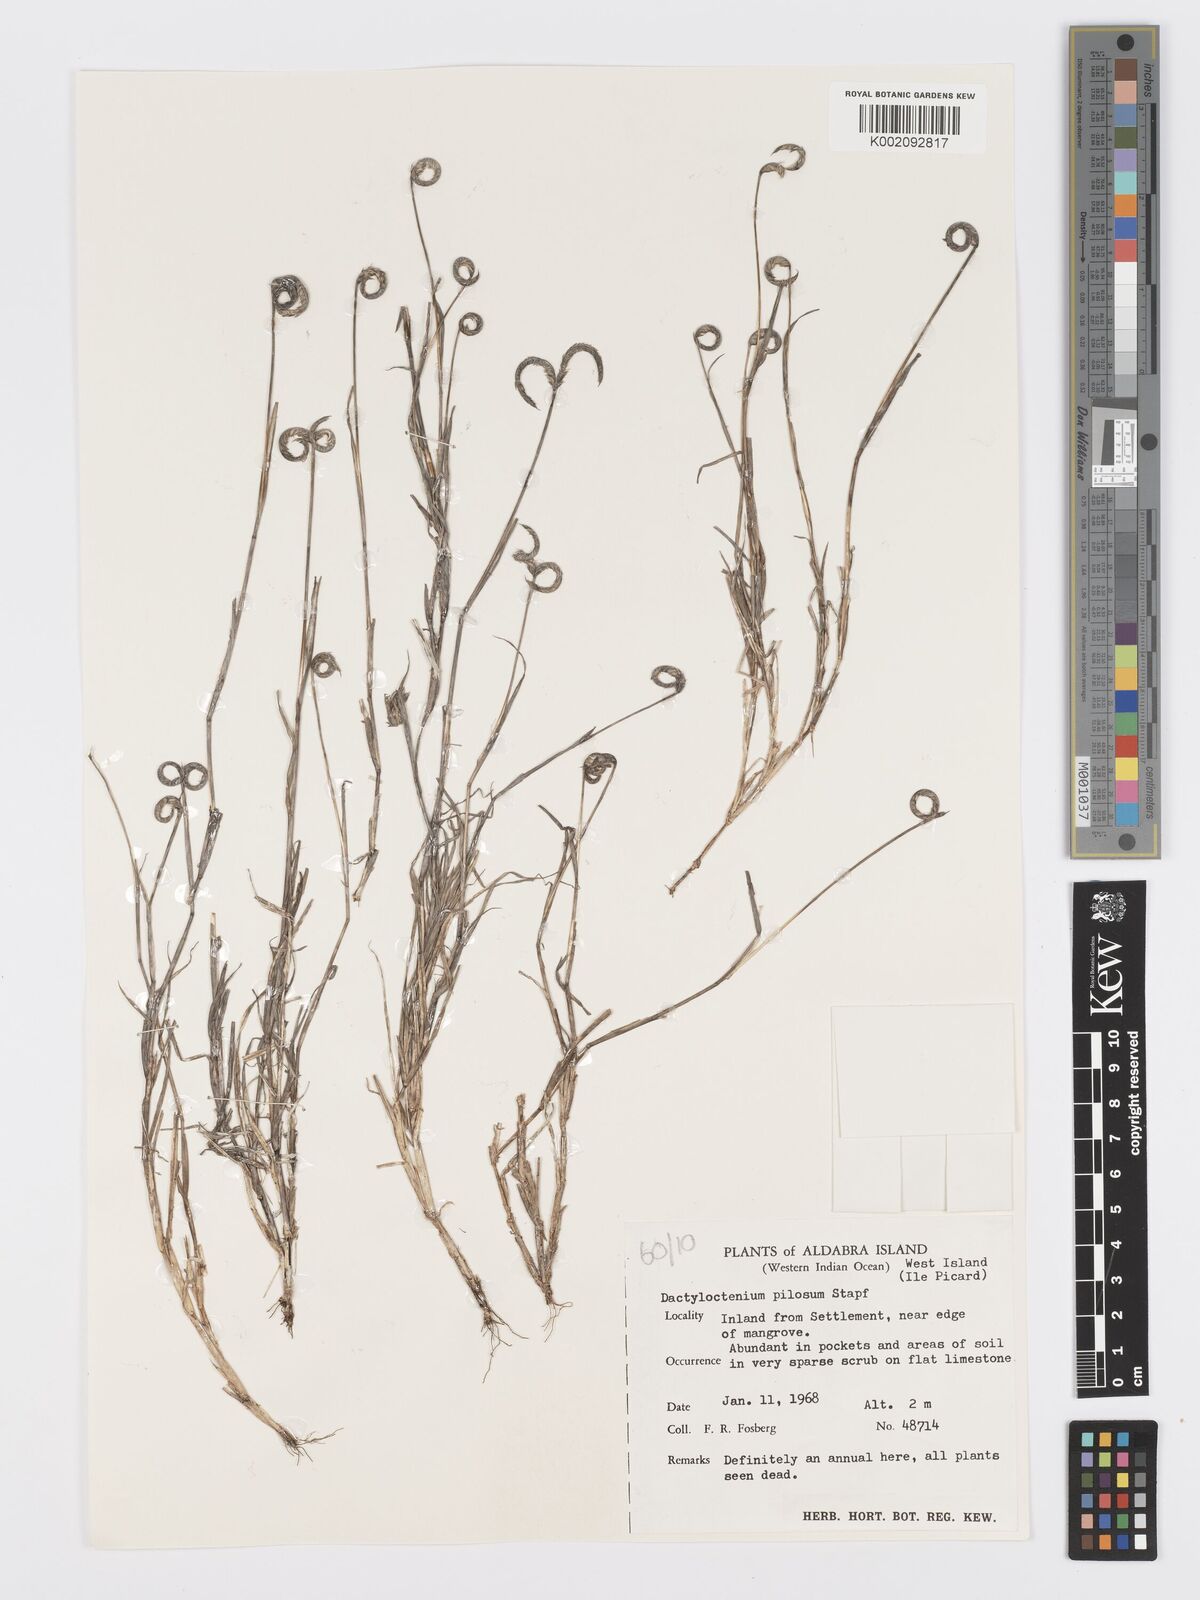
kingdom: Plantae
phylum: Tracheophyta
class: Liliopsida
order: Poales
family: Poaceae
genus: Dactyloctenium
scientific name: Dactyloctenium pilosum
